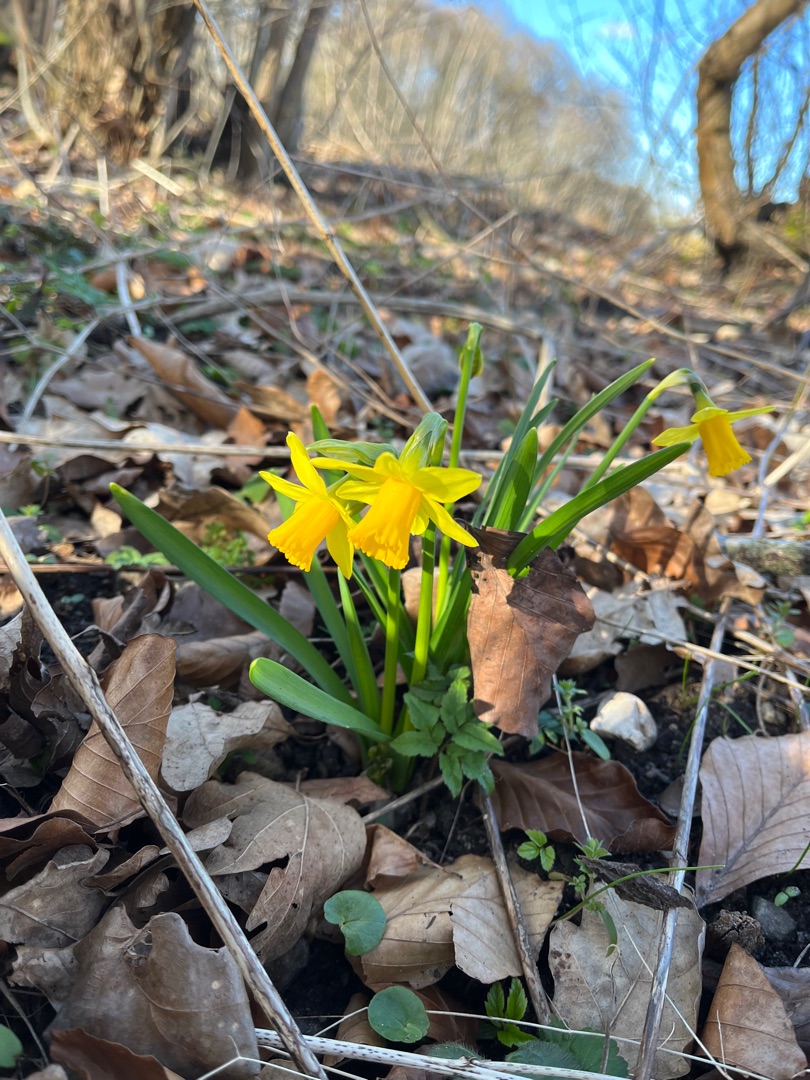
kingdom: Plantae
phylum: Tracheophyta
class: Liliopsida
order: Asparagales
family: Amaryllidaceae
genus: Narcissus
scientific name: Narcissus cyclazetta
